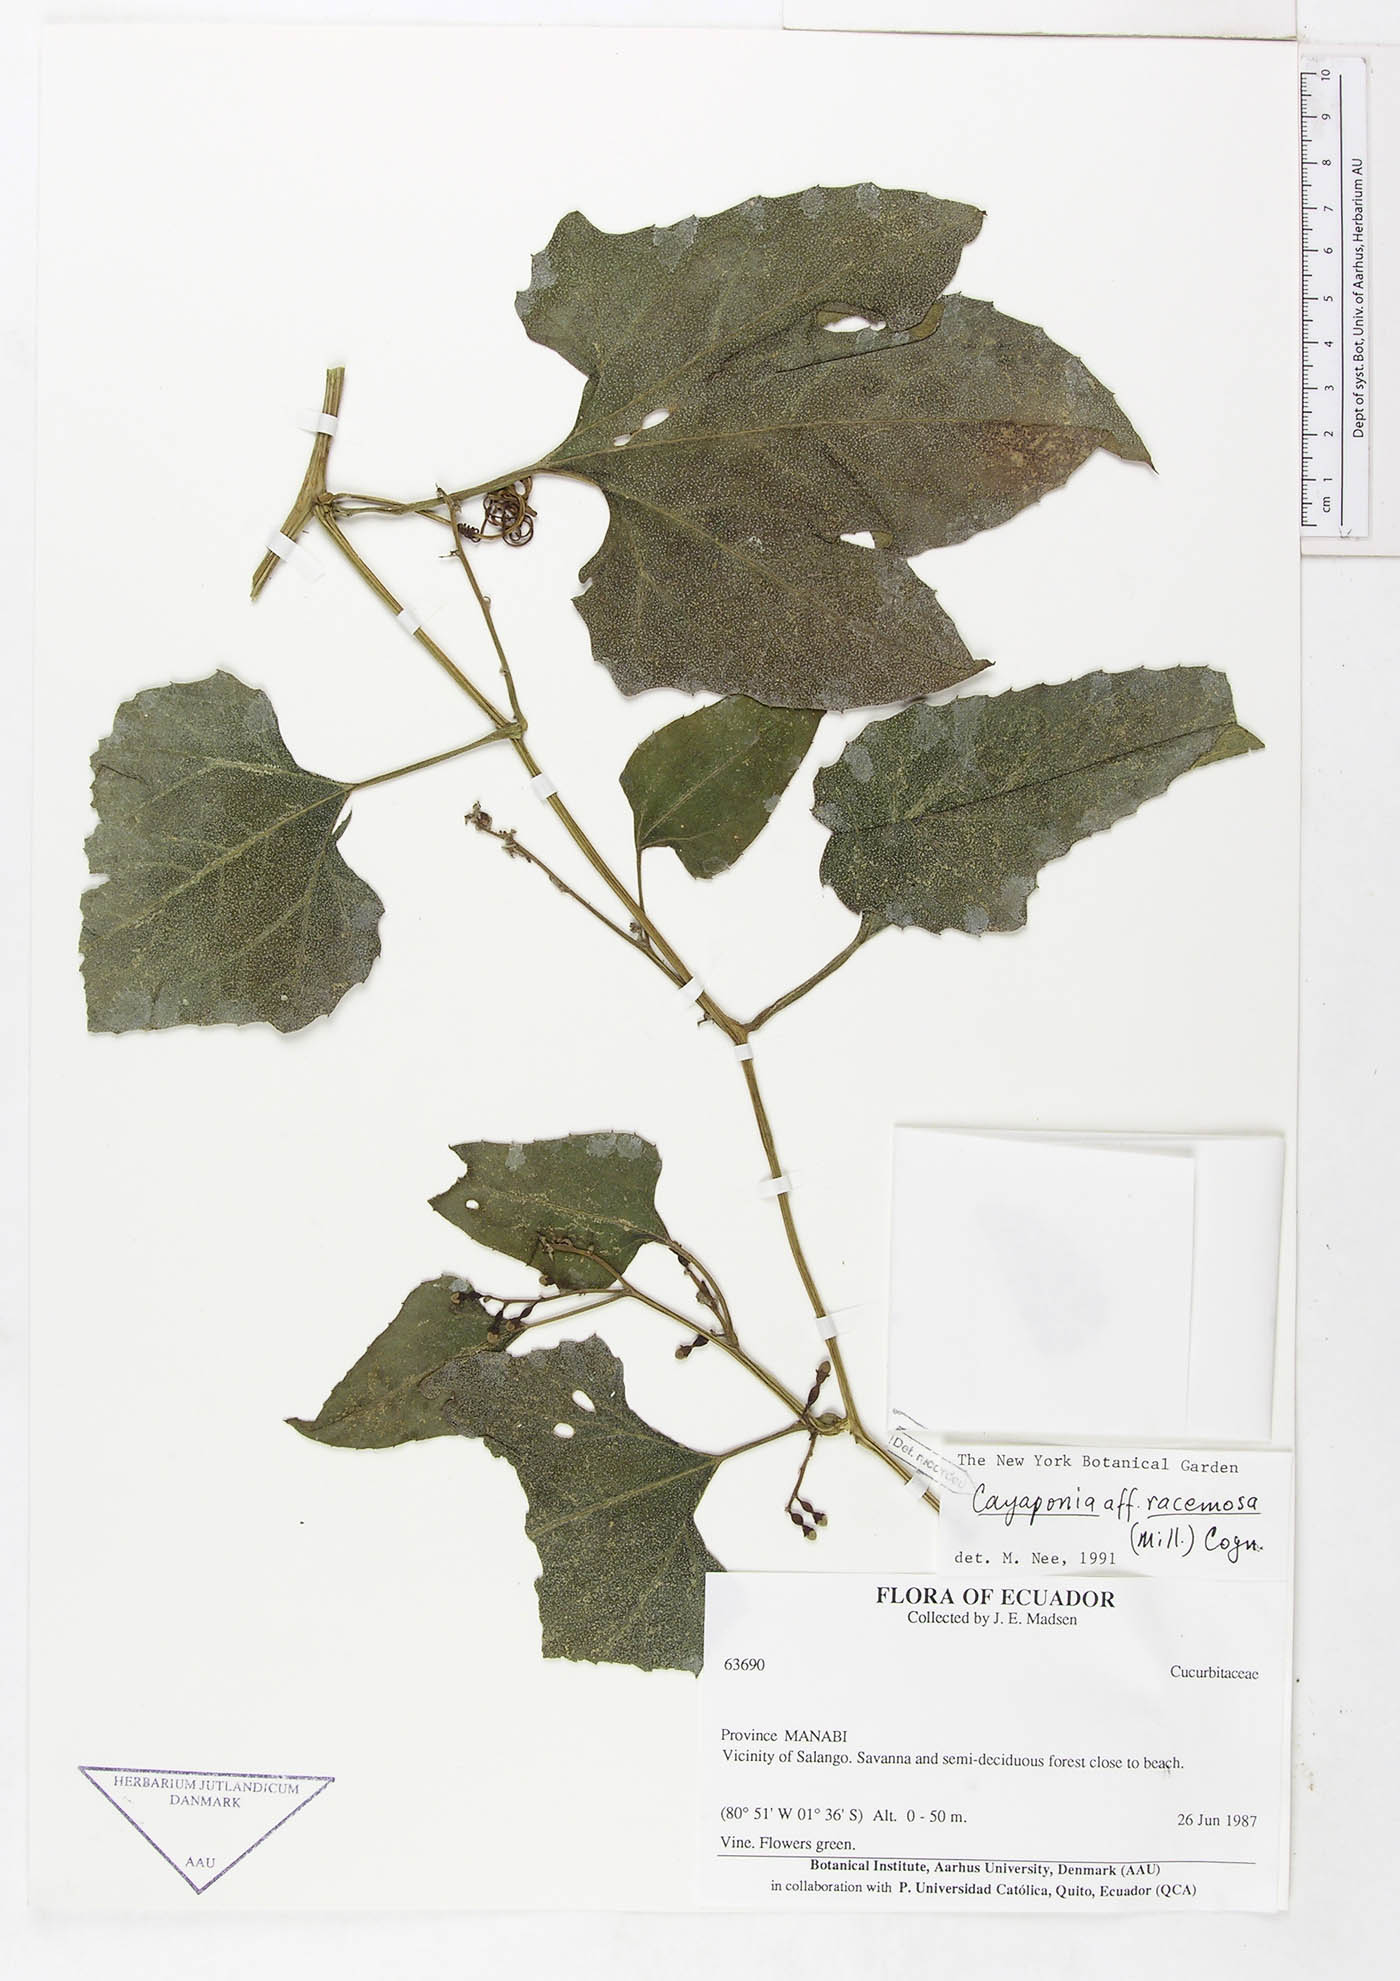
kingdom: Plantae
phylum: Tracheophyta
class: Magnoliopsida
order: Cucurbitales
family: Cucurbitaceae
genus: Cayaponia
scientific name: Cayaponia racemosa
